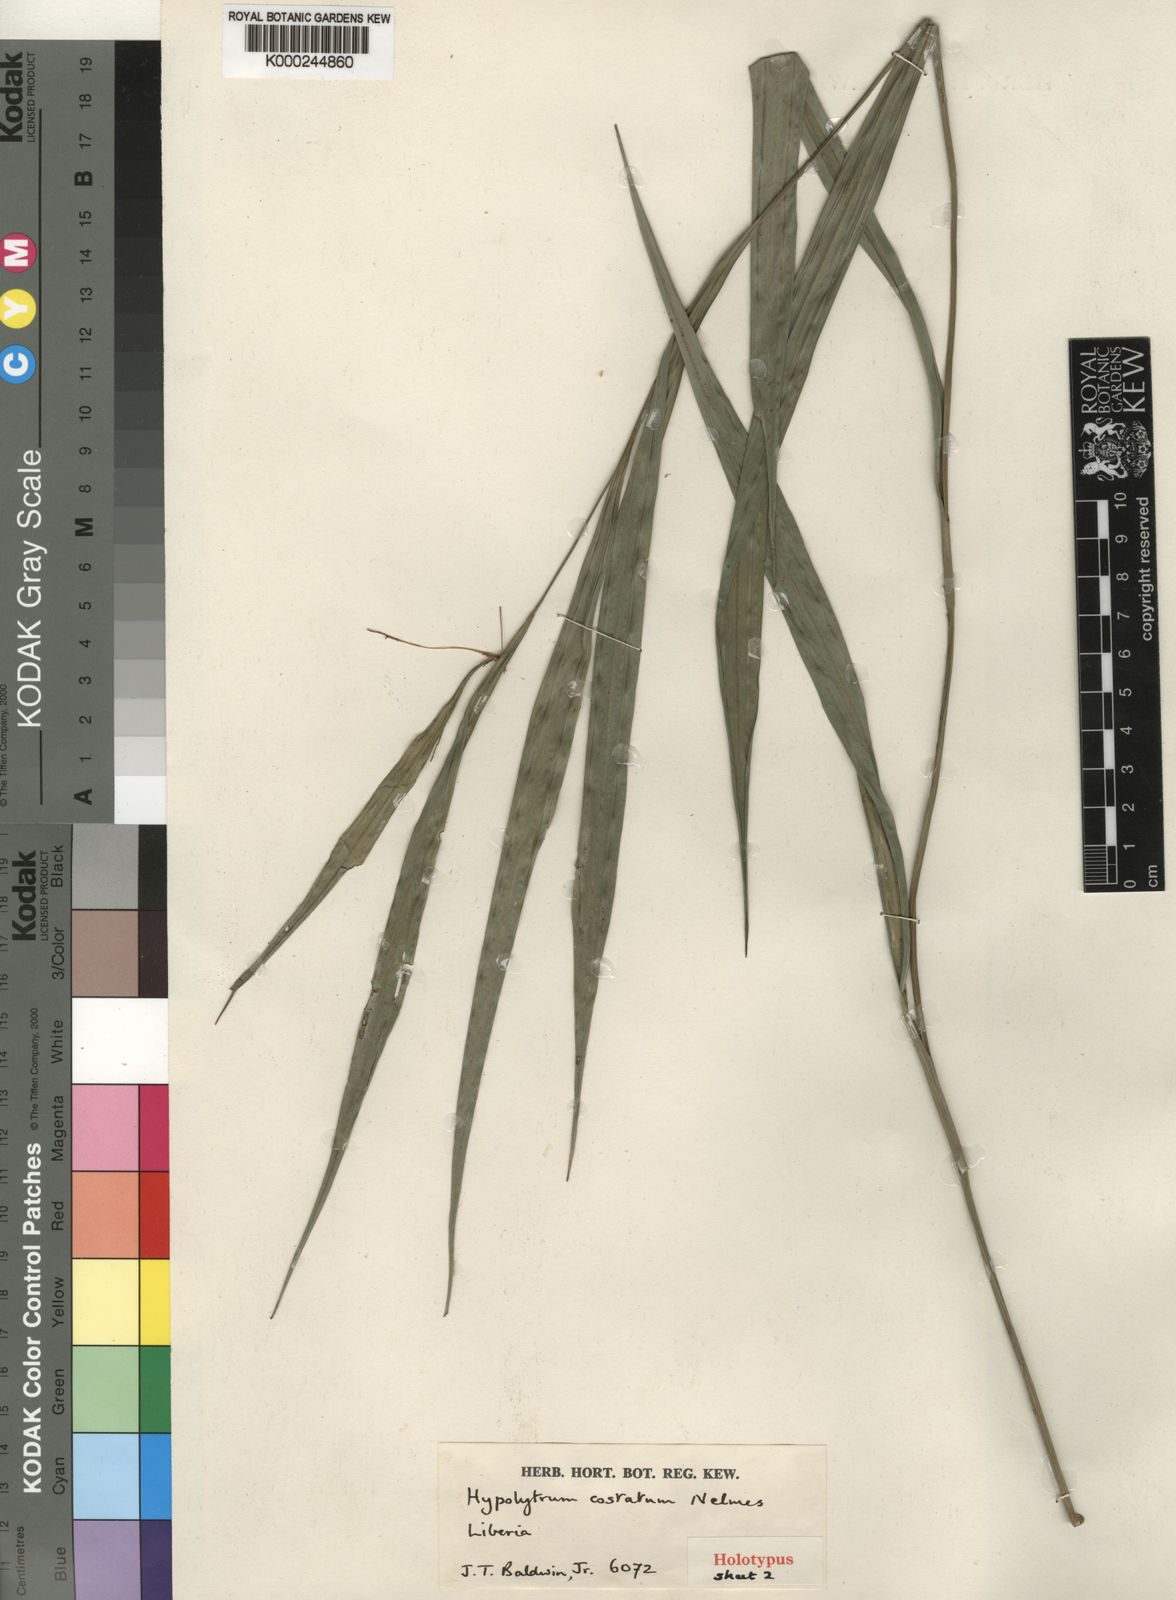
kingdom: Plantae
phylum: Tracheophyta
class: Liliopsida
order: Poales
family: Cyperaceae
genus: Hypolytrum
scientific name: Hypolytrum pahiense
